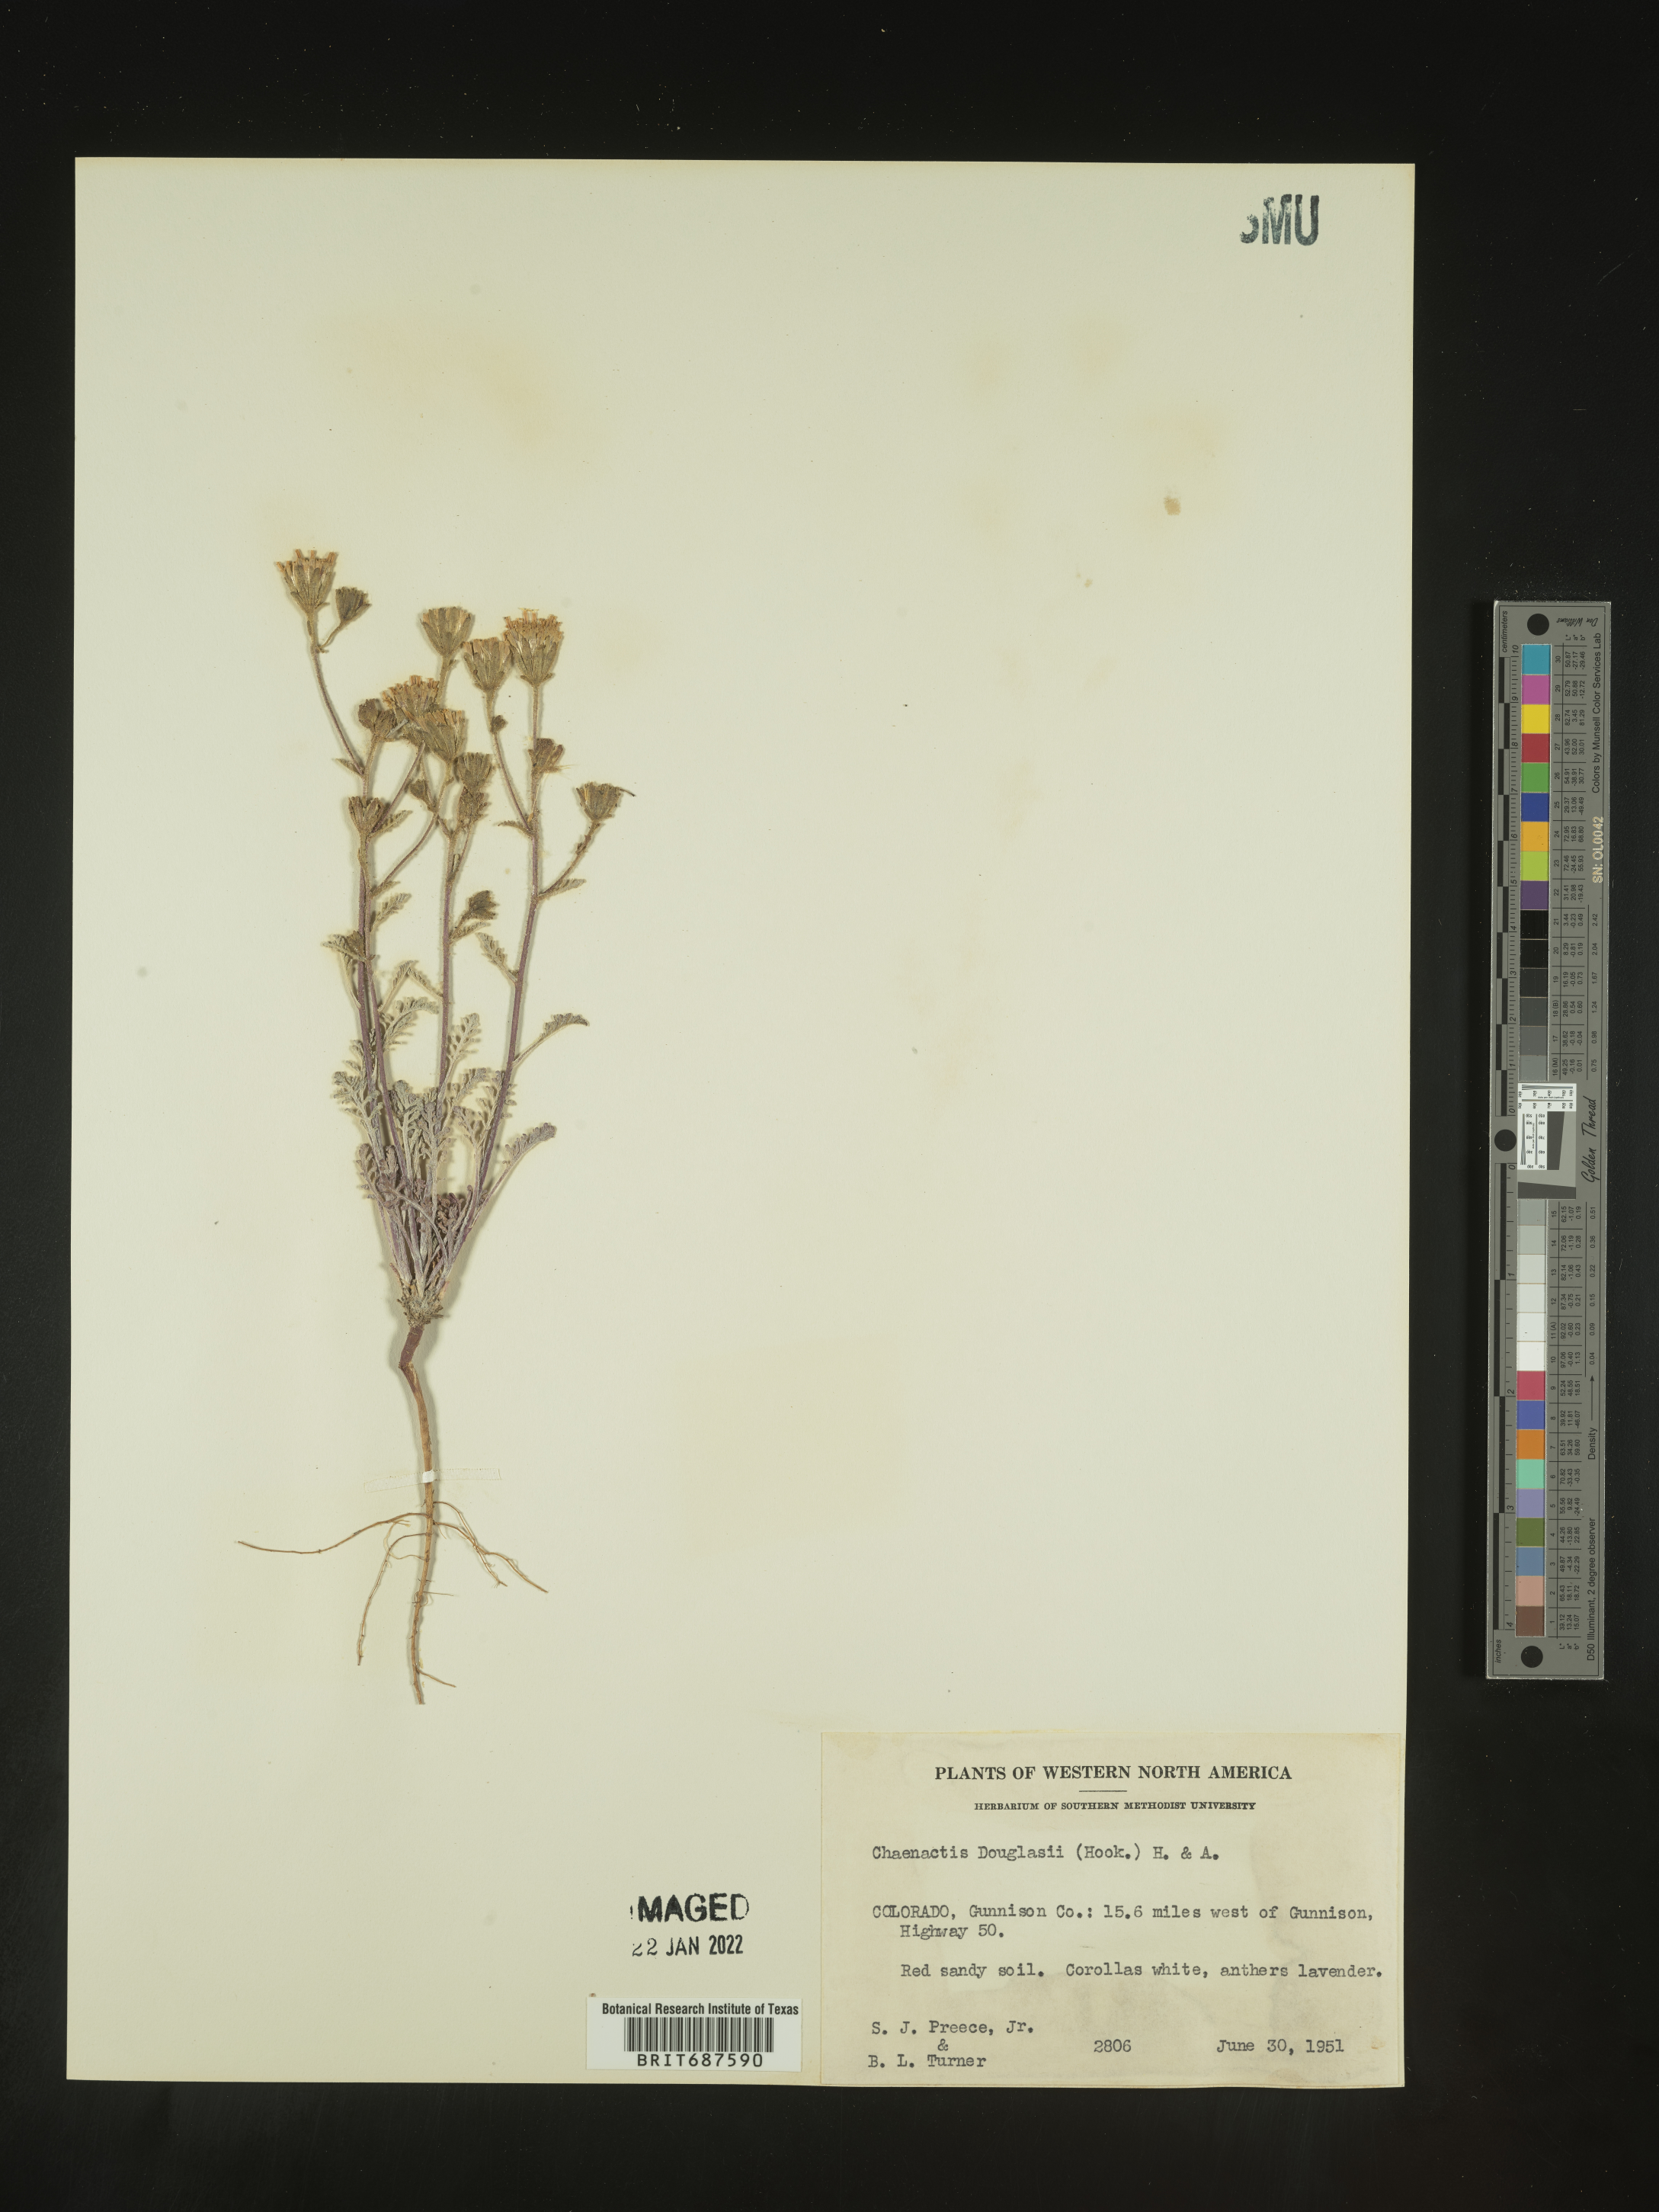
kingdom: Plantae
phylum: Tracheophyta
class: Magnoliopsida
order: Asterales
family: Asteraceae
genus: Chaenactis
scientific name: Chaenactis douglasii
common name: Hoary pincushion
